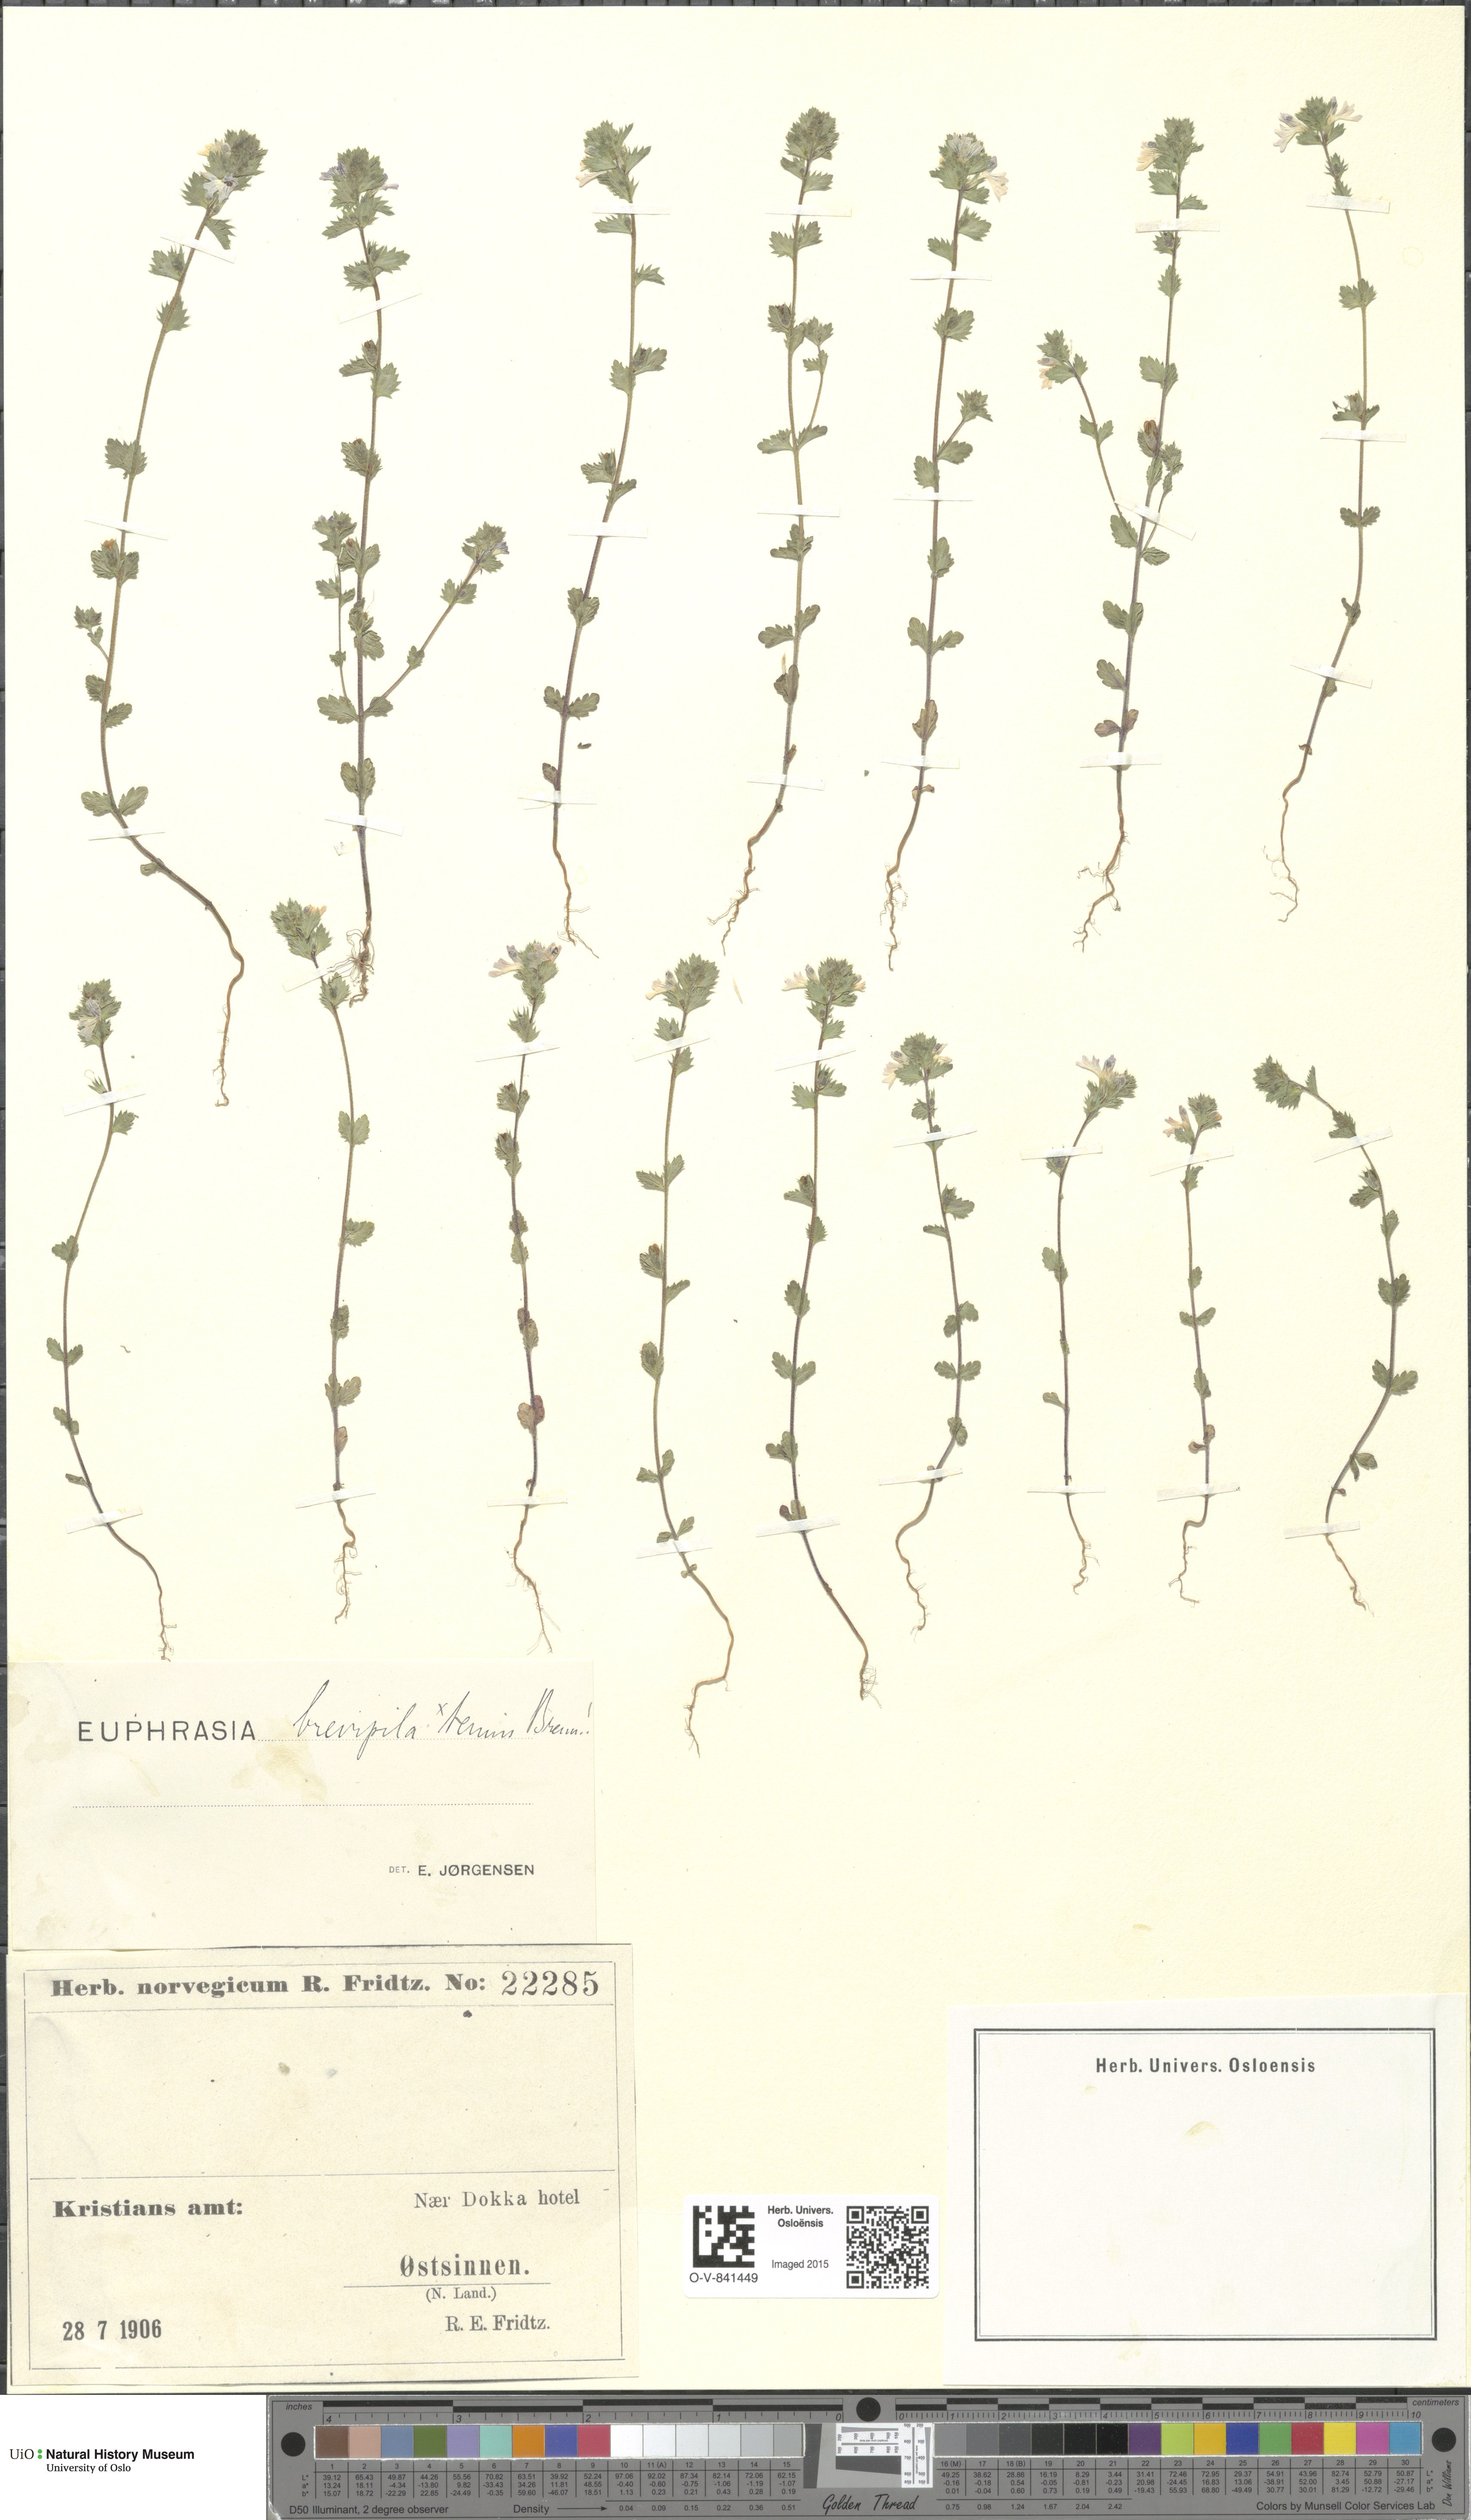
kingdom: Plantae
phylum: Tracheophyta
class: Magnoliopsida
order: Lamiales
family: Orobanchaceae
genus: Euphrasia
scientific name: Euphrasia vernalis
